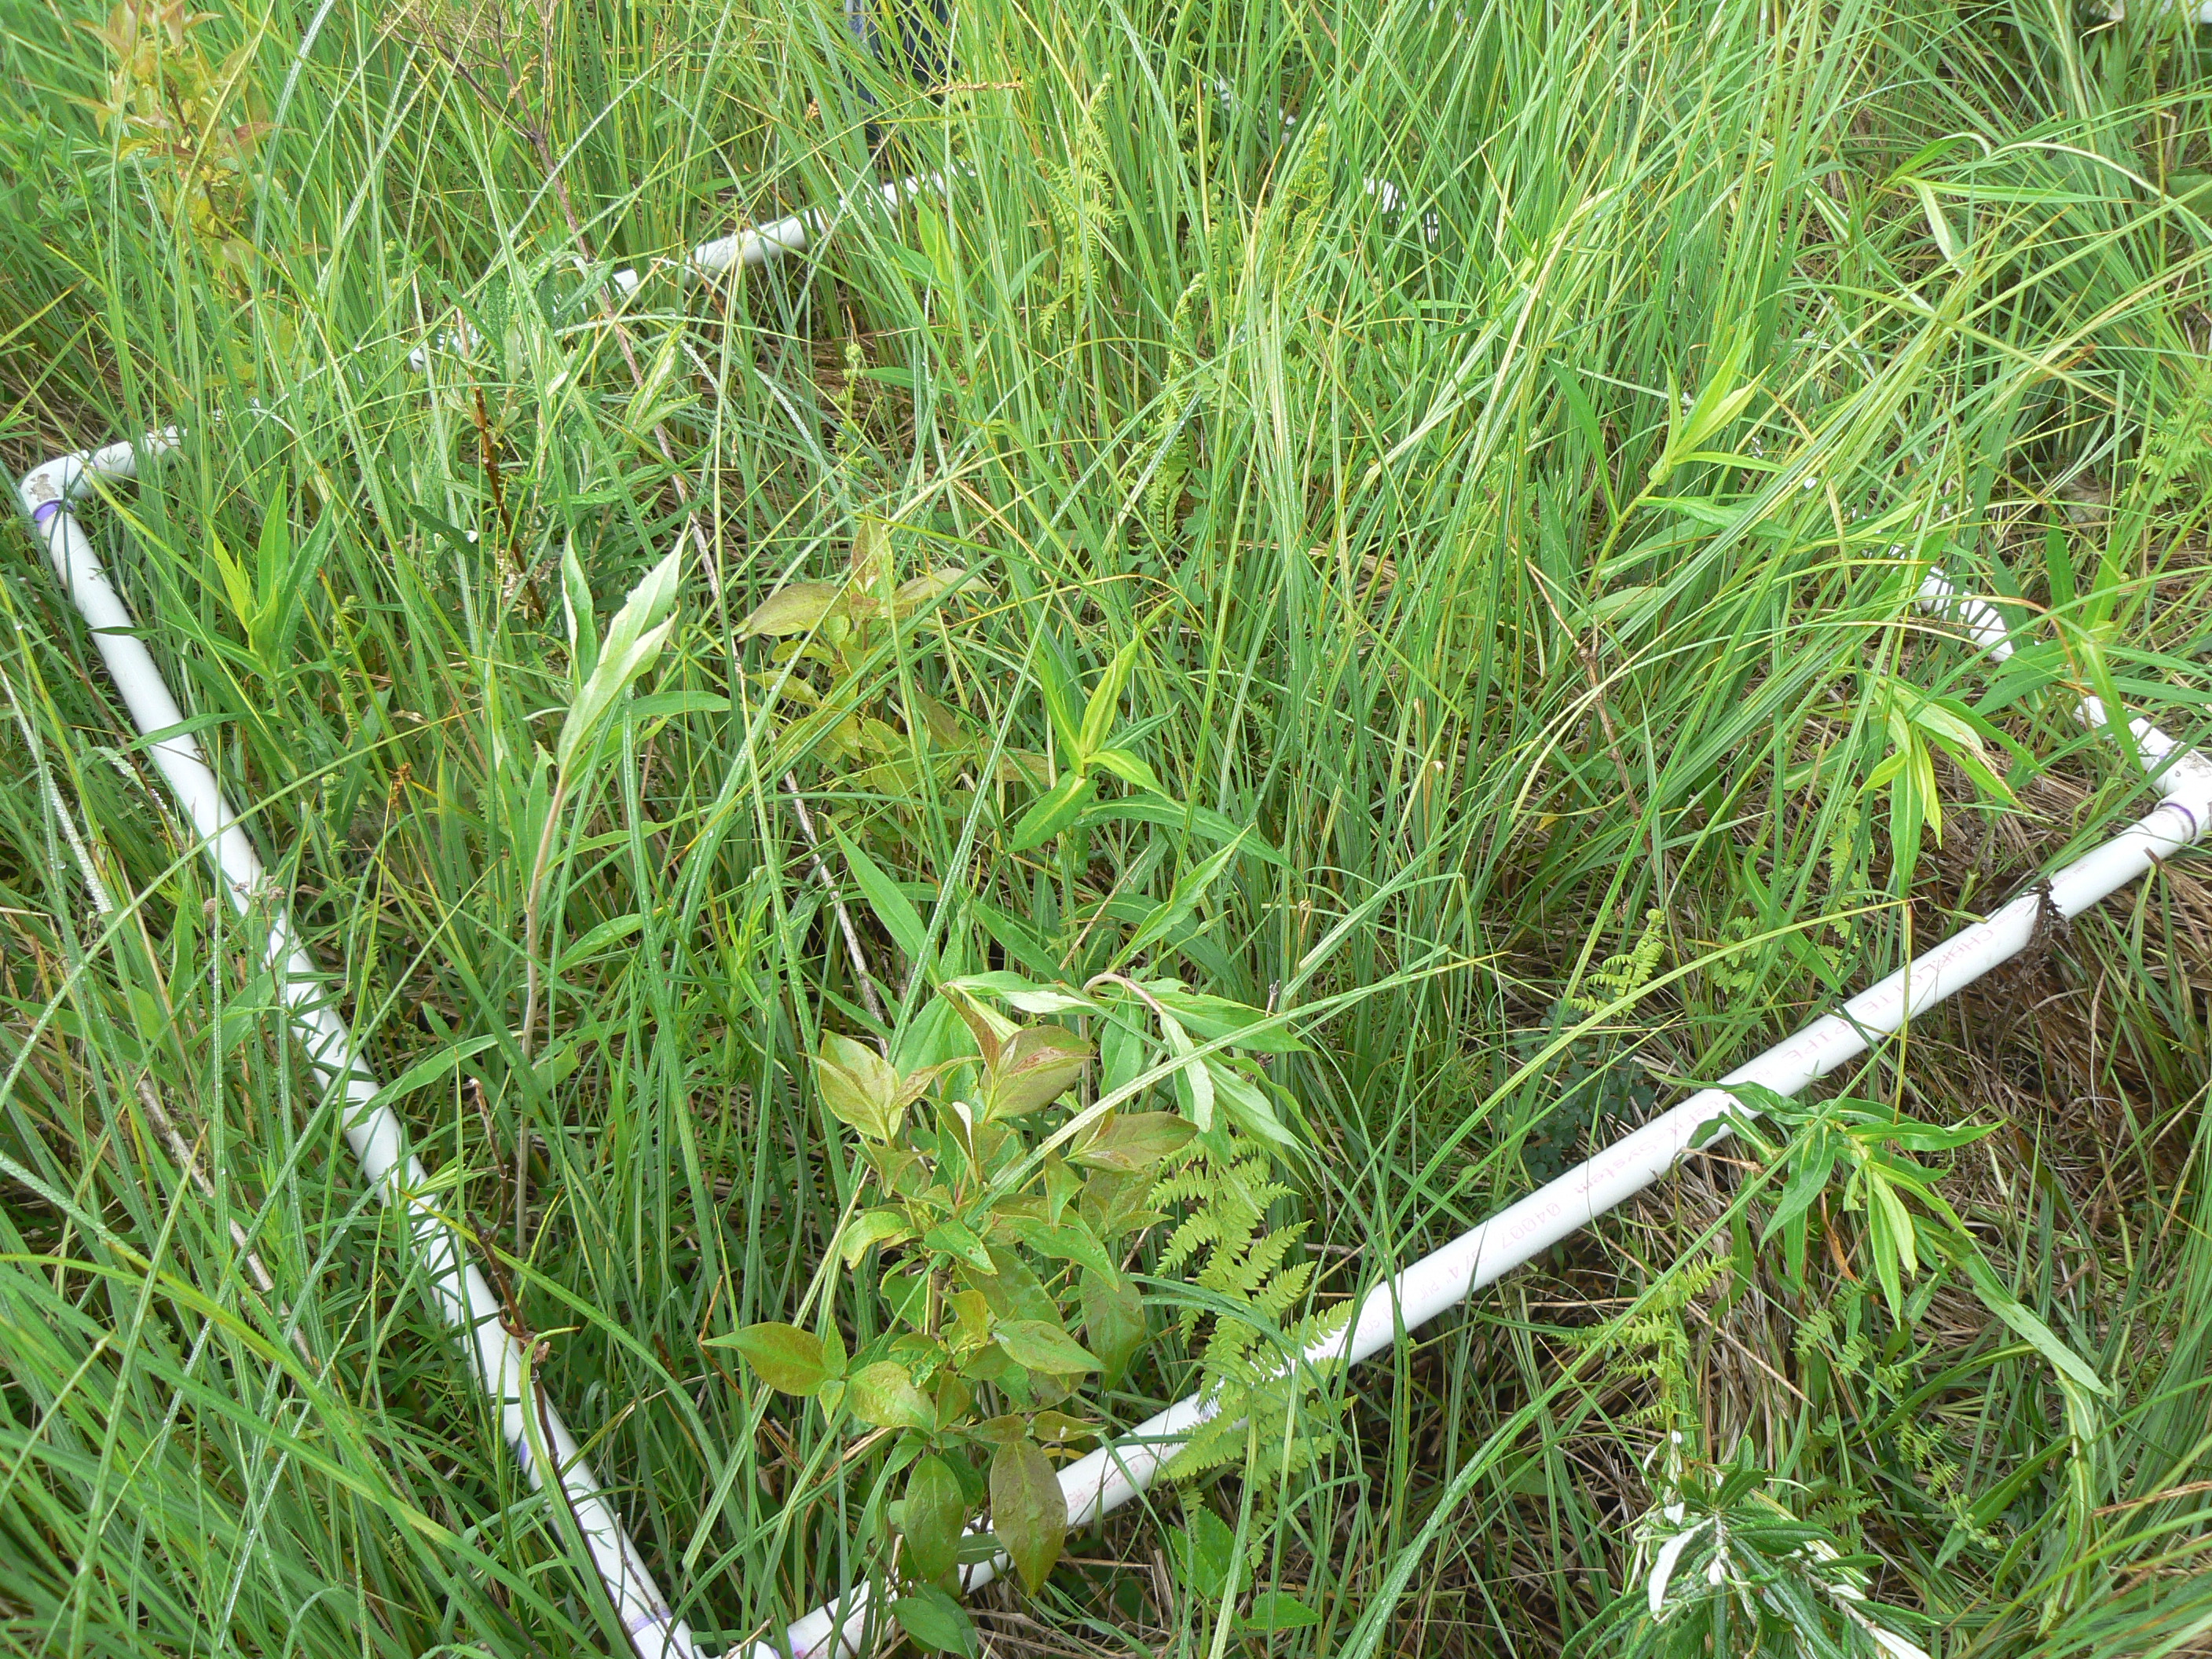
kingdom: Plantae
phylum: Tracheophyta
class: Magnoliopsida
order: Asterales
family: Asteraceae
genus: Symphyotrichum
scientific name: Symphyotrichum firmum
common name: Shining aster
